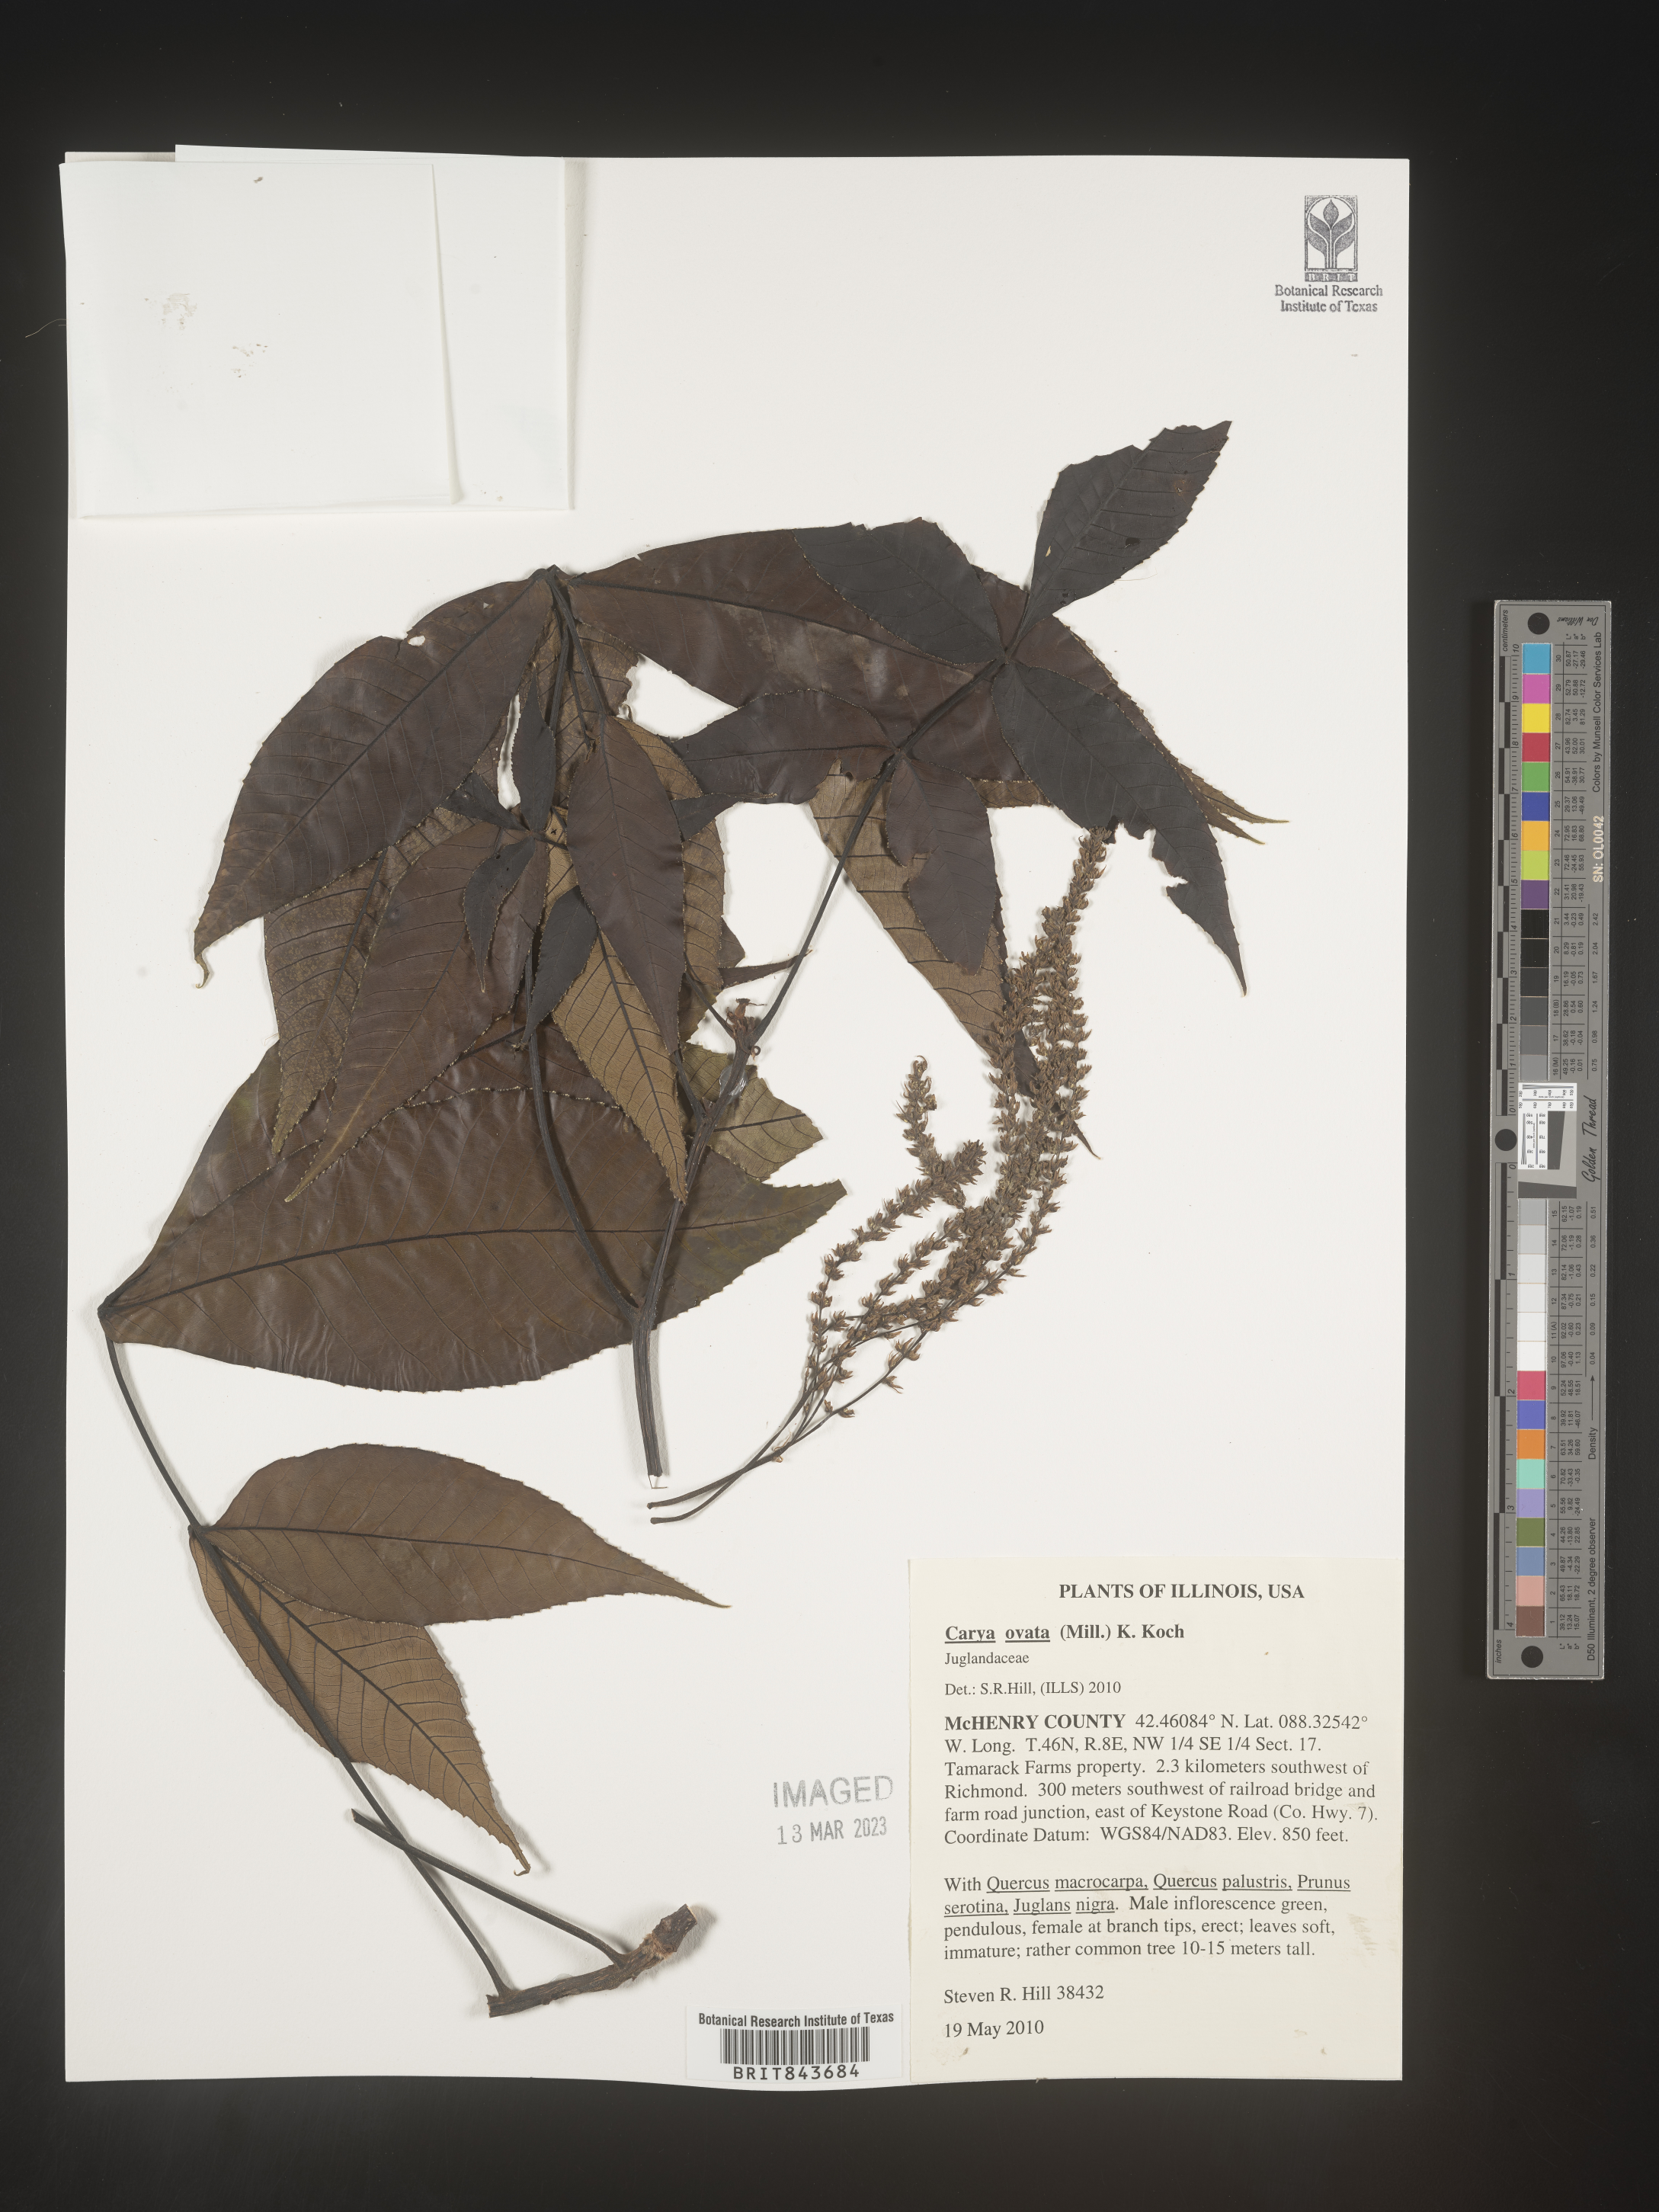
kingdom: Plantae
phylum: Tracheophyta
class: Magnoliopsida
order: Fagales
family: Juglandaceae
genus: Carya
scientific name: Carya ovata
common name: Shagbark hickory
